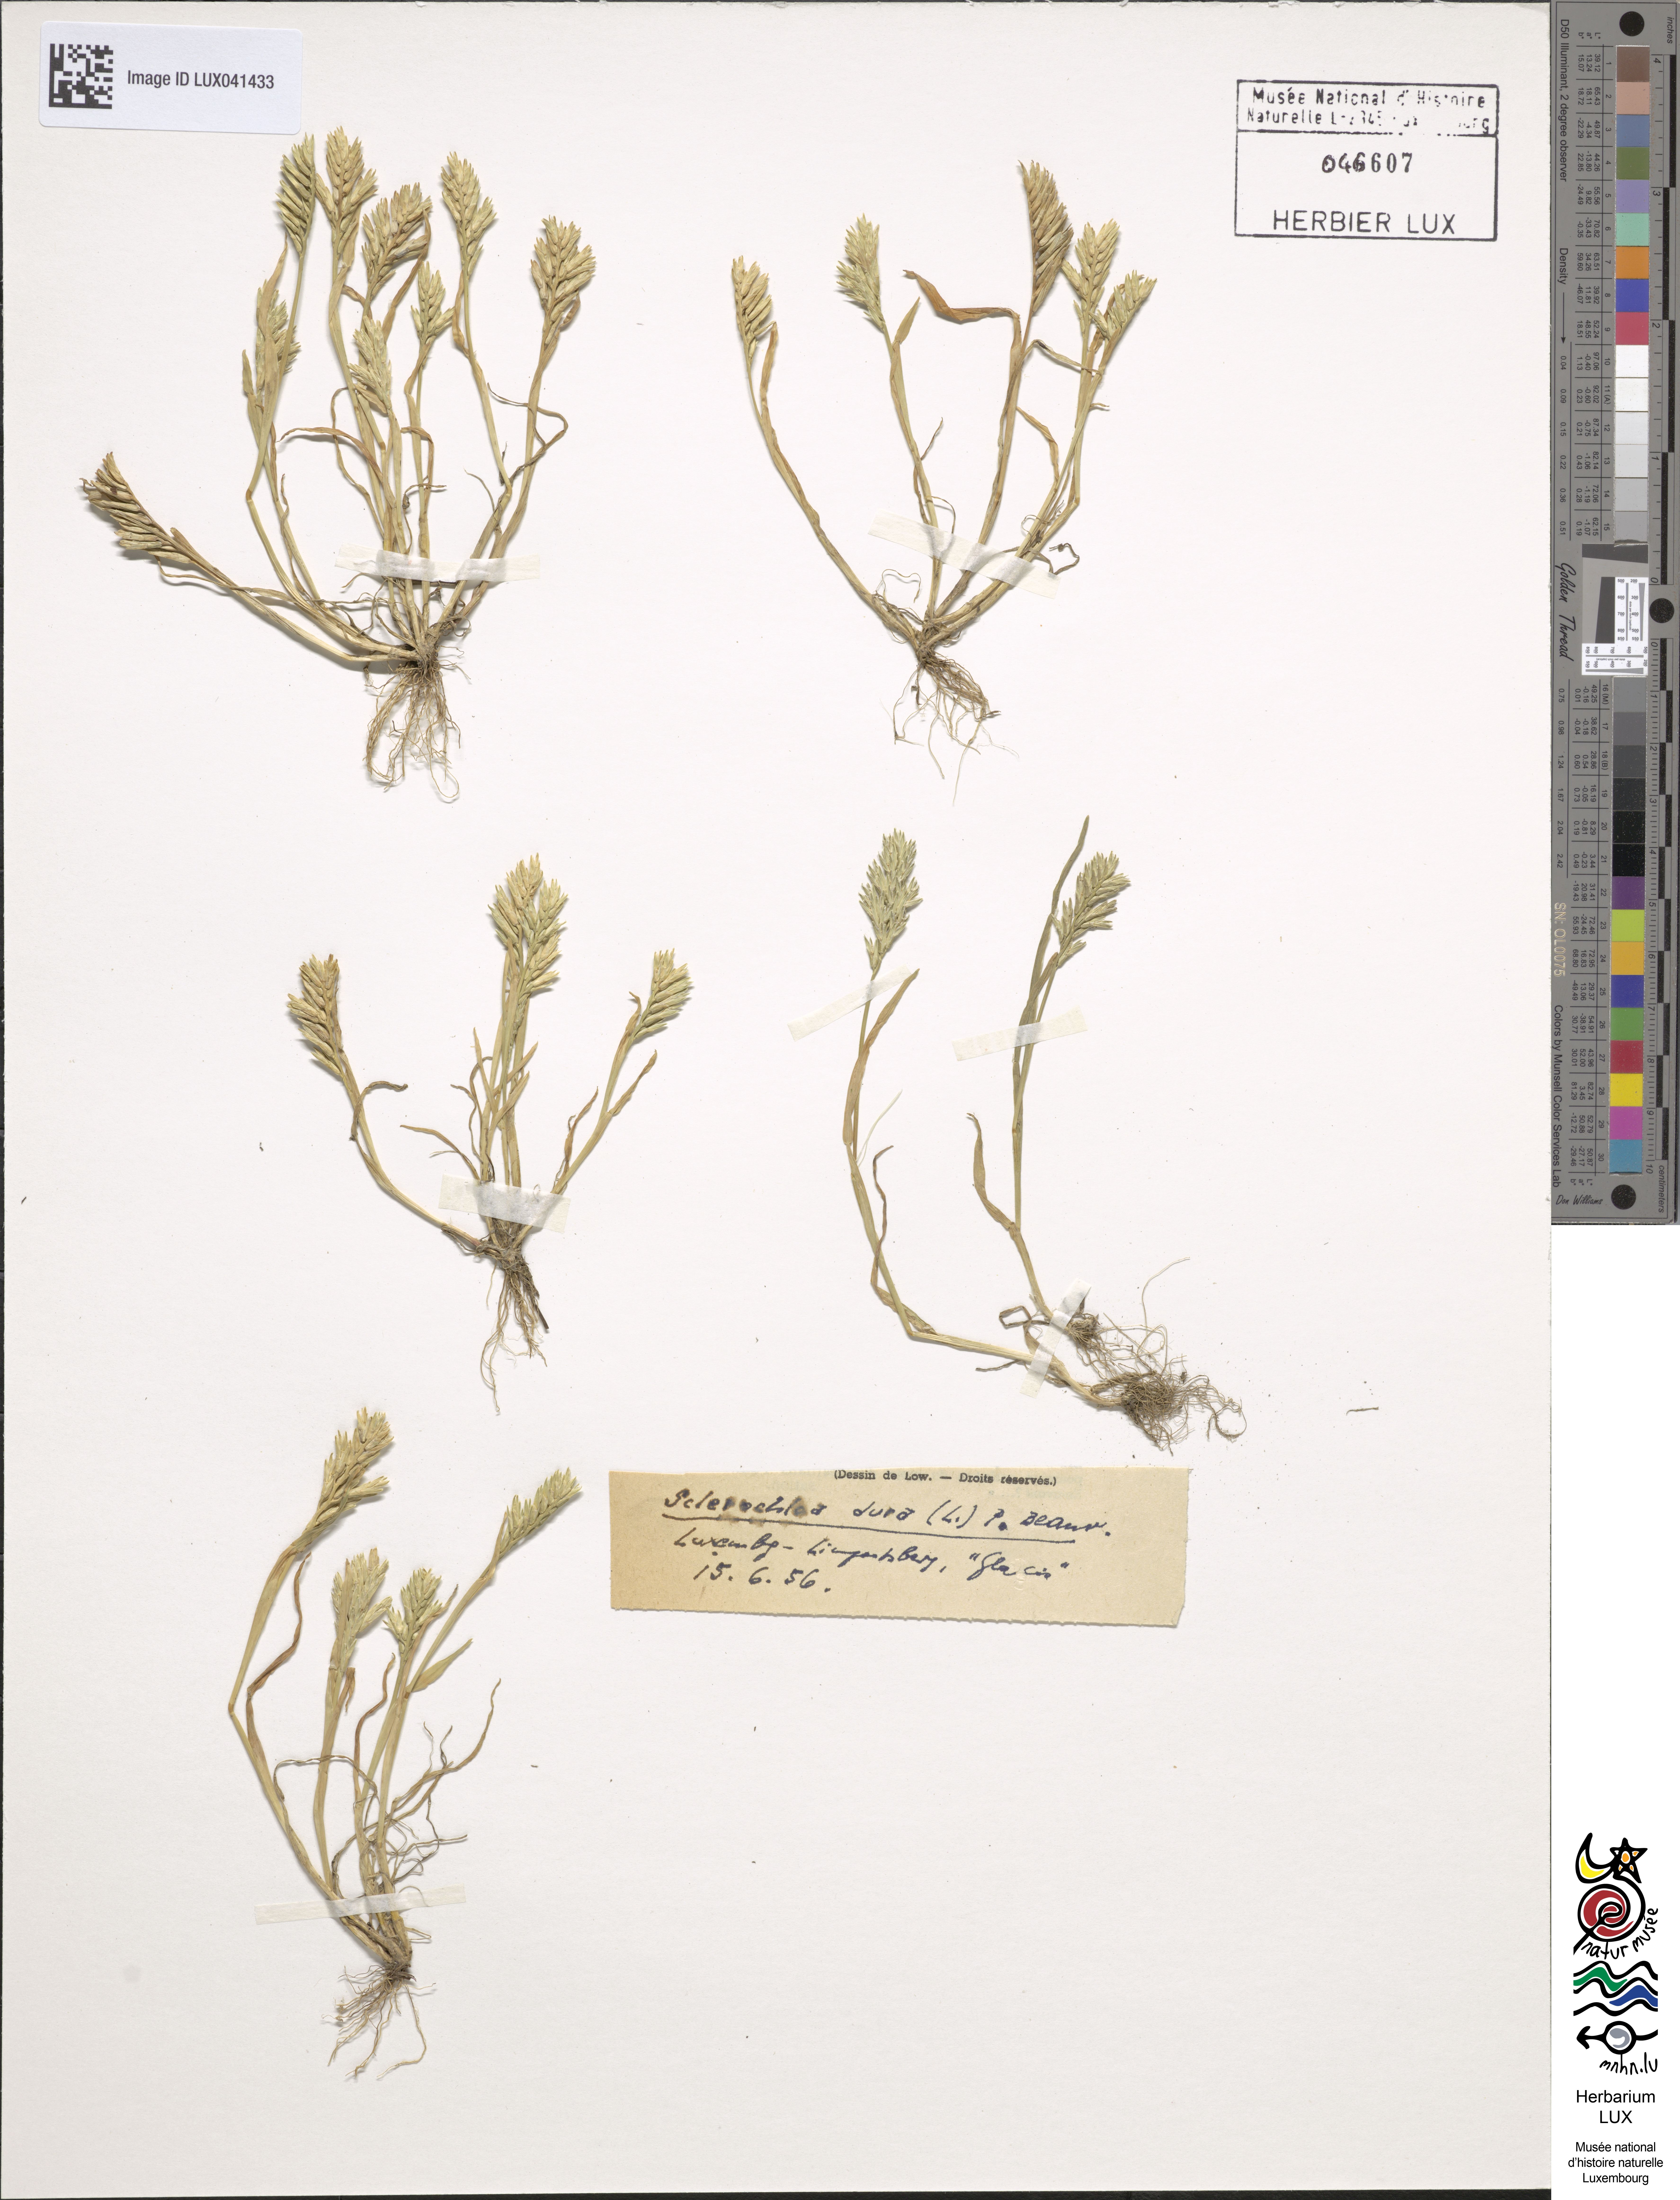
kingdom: Plantae
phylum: Tracheophyta
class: Liliopsida
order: Poales
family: Poaceae
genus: Sclerochloa
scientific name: Sclerochloa dura
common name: Common hardgrass
